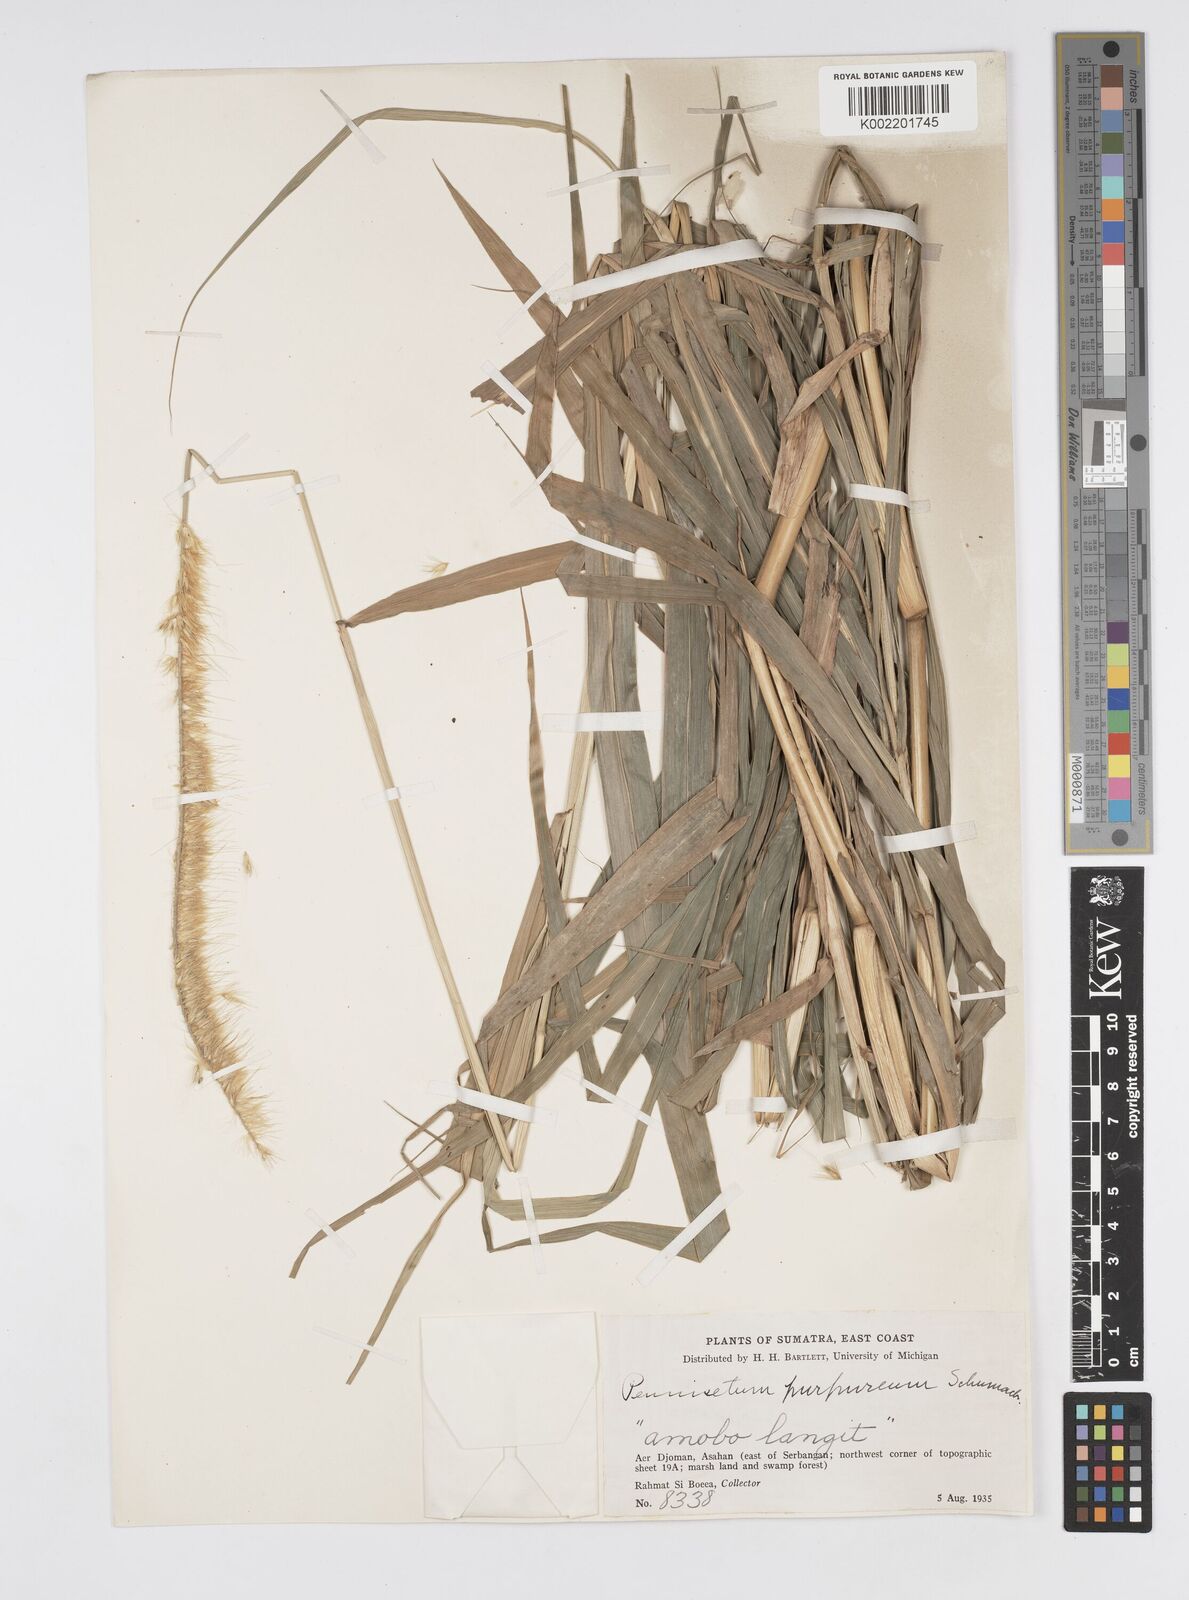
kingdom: Plantae
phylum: Tracheophyta
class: Liliopsida
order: Poales
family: Poaceae
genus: Cenchrus
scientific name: Cenchrus purpureus
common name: Elephant grass
